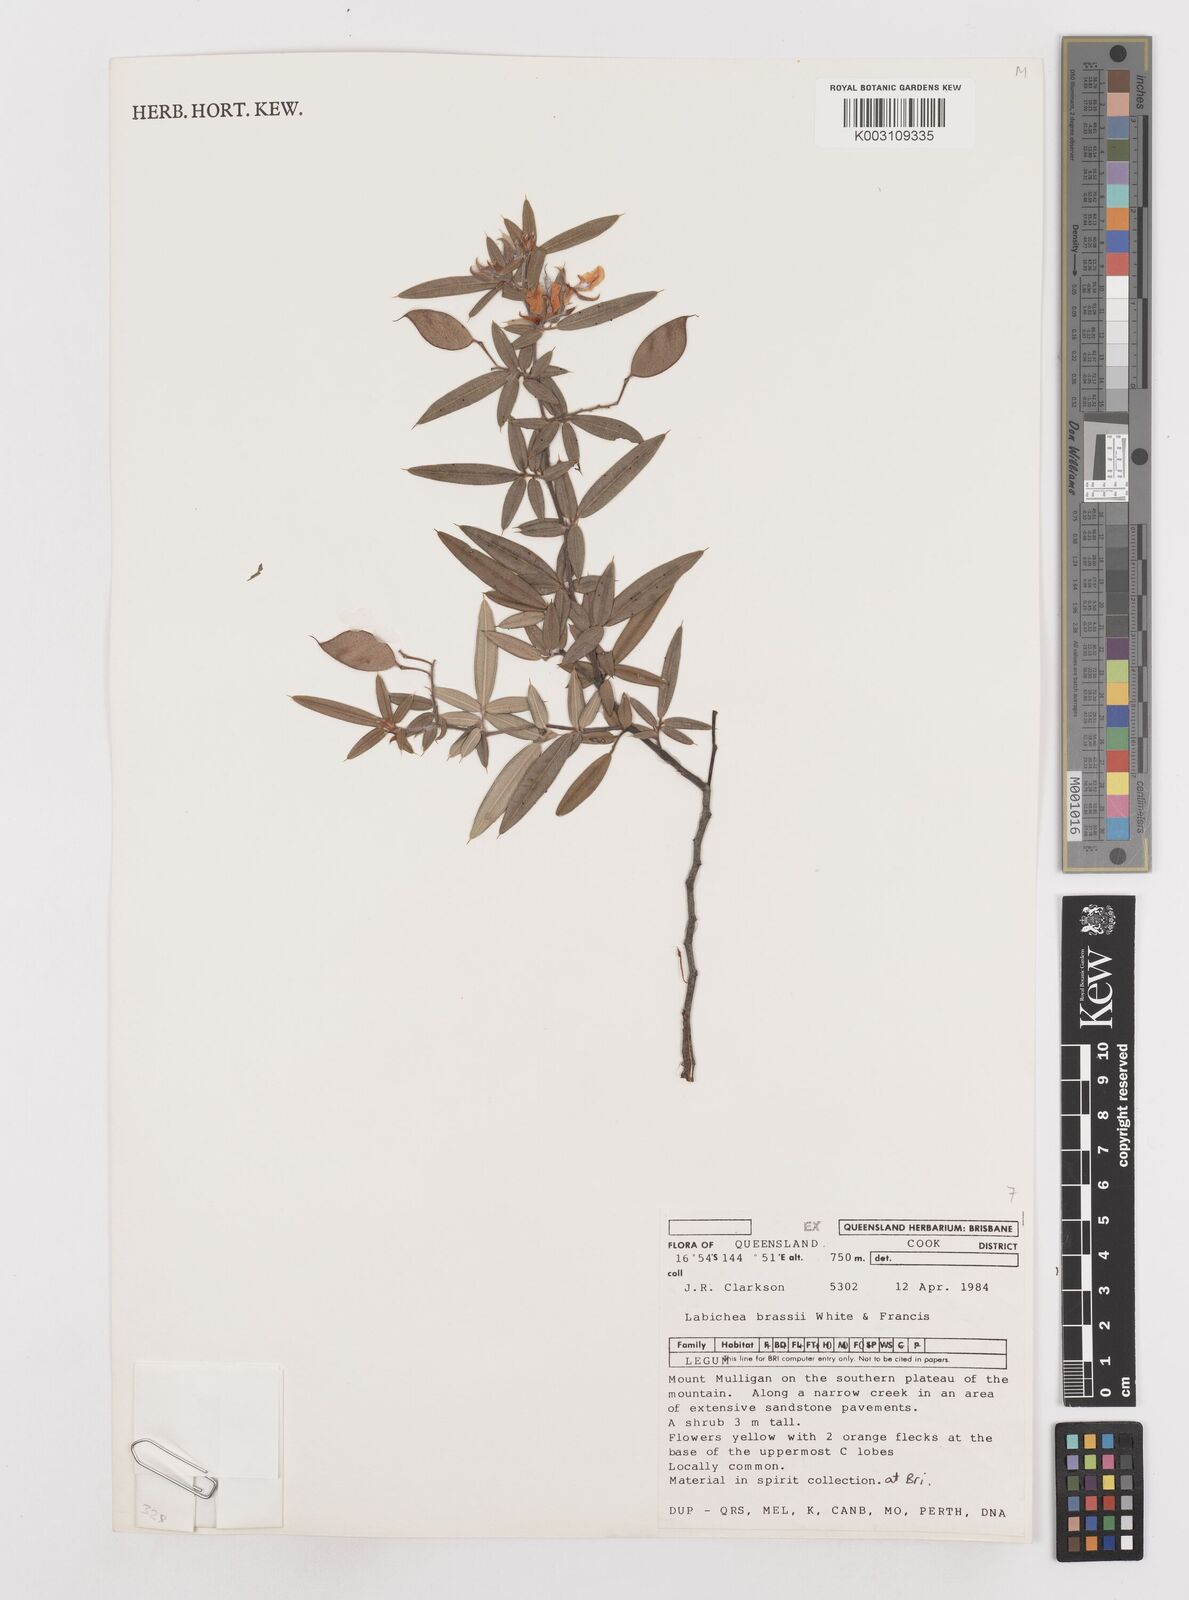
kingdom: Plantae
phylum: Tracheophyta
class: Magnoliopsida
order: Fabales
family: Fabaceae
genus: Labichea
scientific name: Labichea brassii
